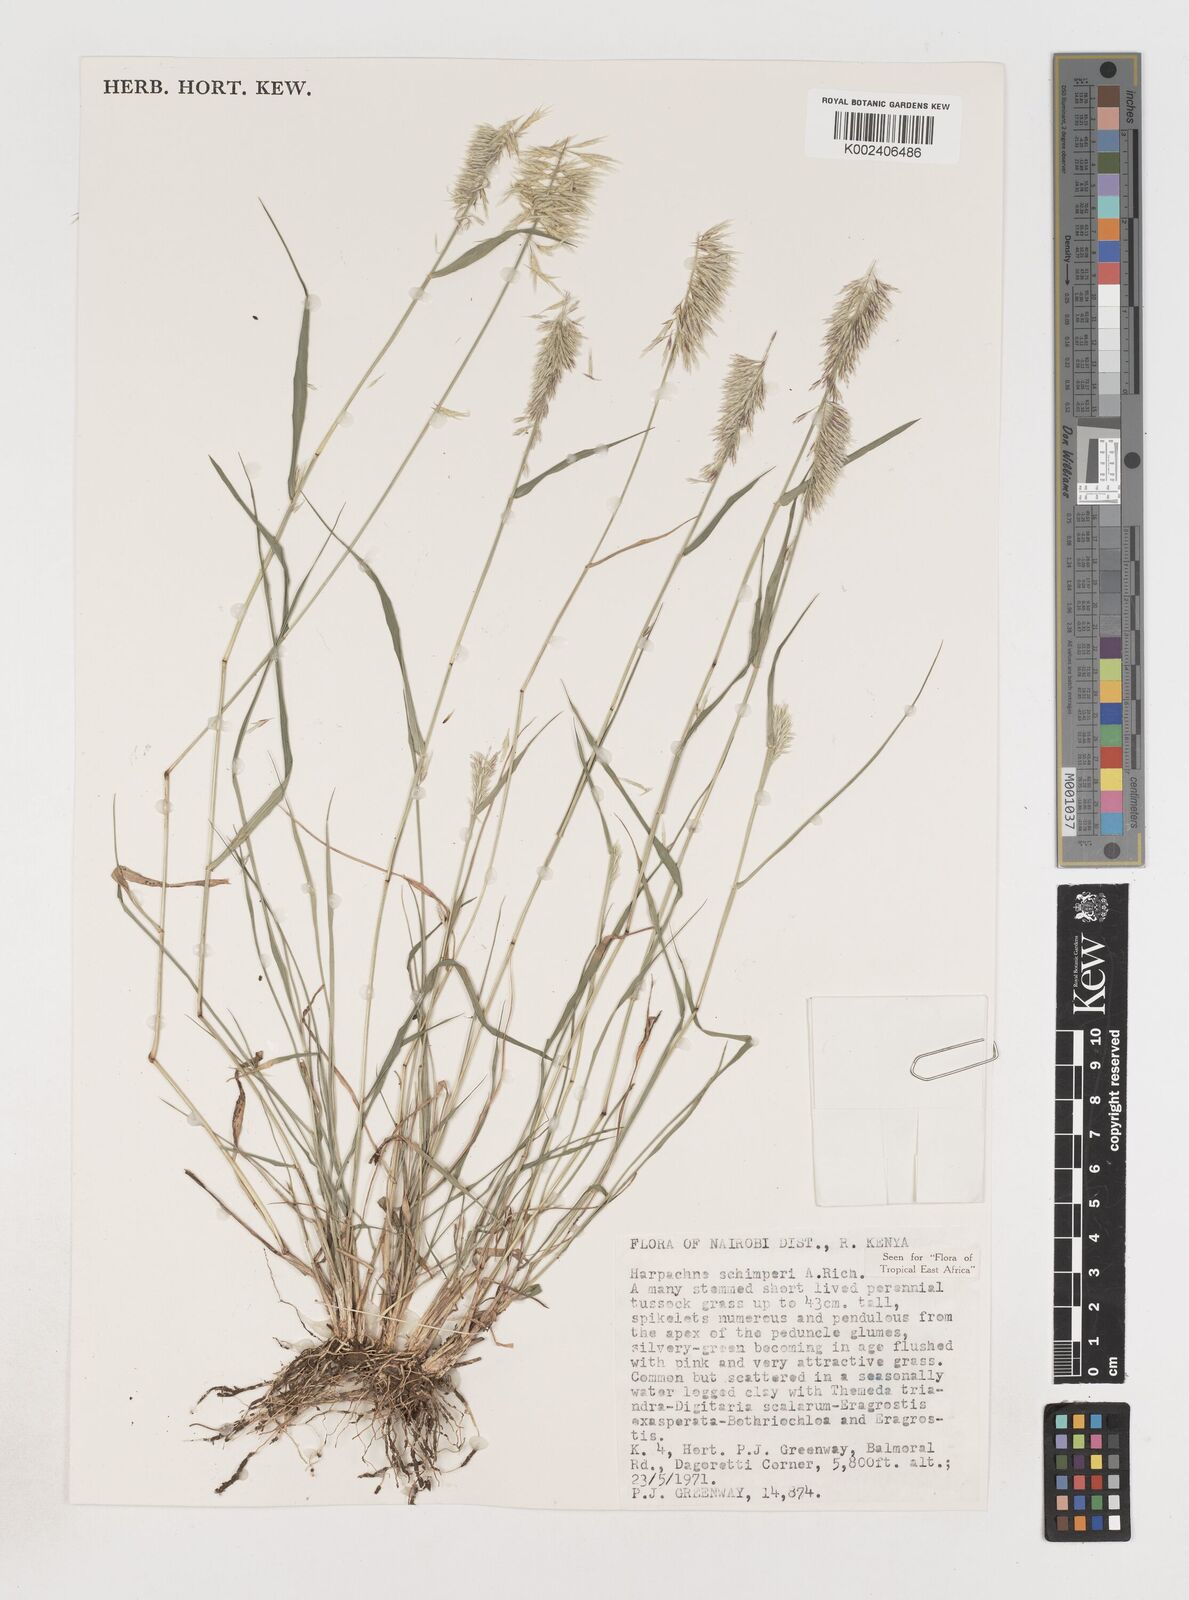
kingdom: Plantae
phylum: Tracheophyta
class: Liliopsida
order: Poales
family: Poaceae
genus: Harpachne
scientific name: Harpachne schimperi
